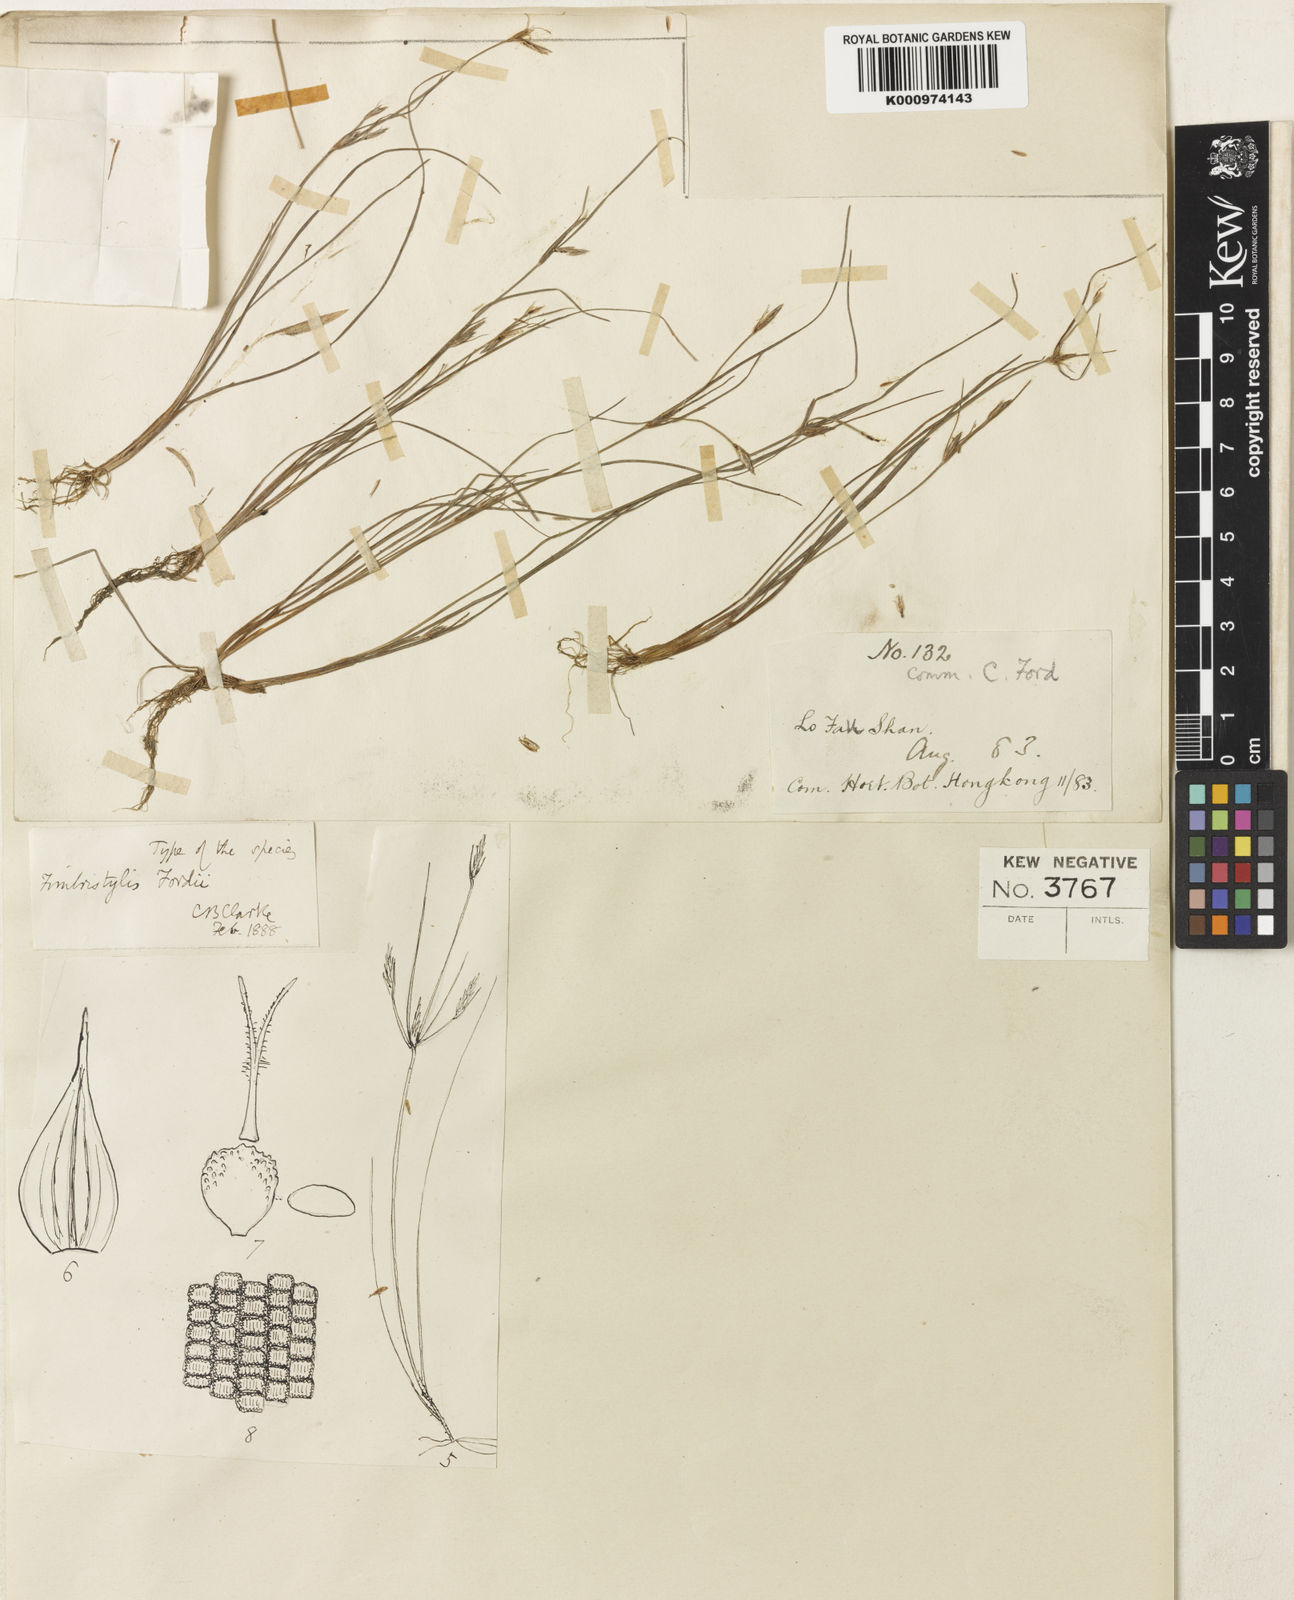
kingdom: Plantae
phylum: Tracheophyta
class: Liliopsida
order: Poales
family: Cyperaceae
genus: Fimbristylis
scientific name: Fimbristylis
